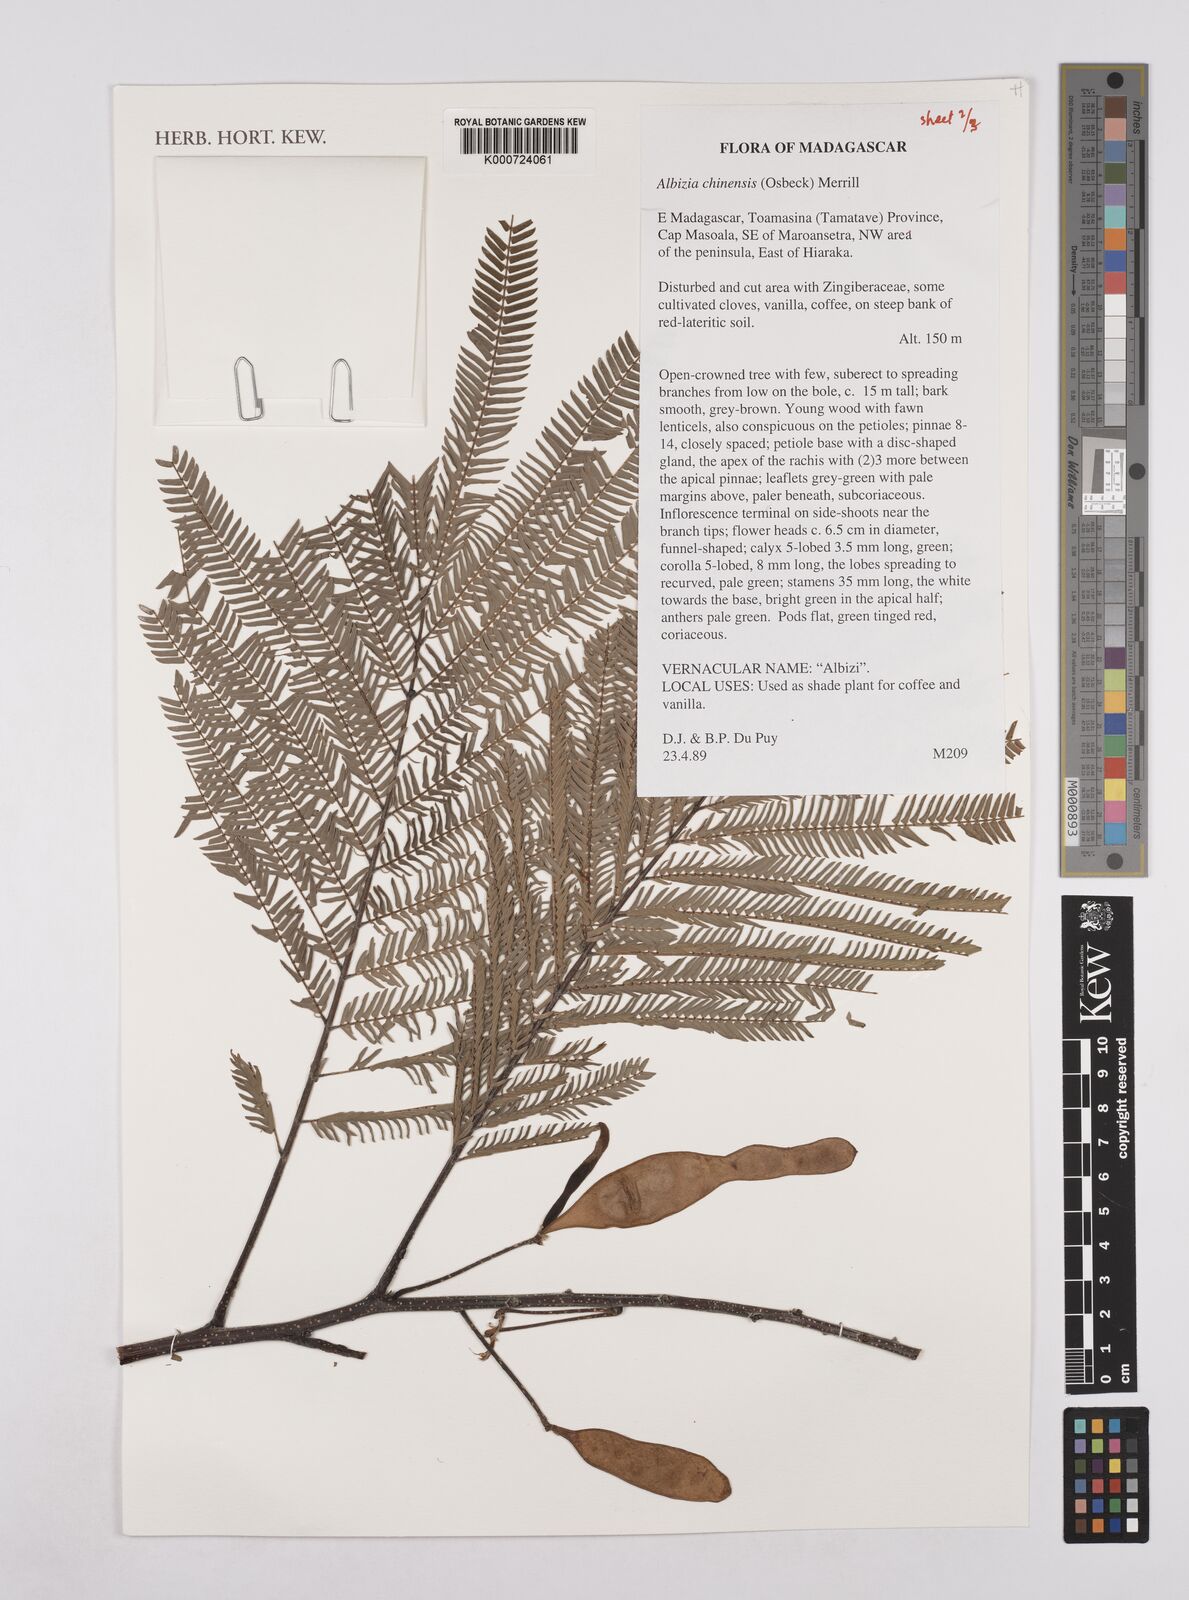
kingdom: Plantae
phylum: Tracheophyta
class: Magnoliopsida
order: Fabales
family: Fabaceae
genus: Albizia
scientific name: Albizia chinensis
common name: Chinese albizia
